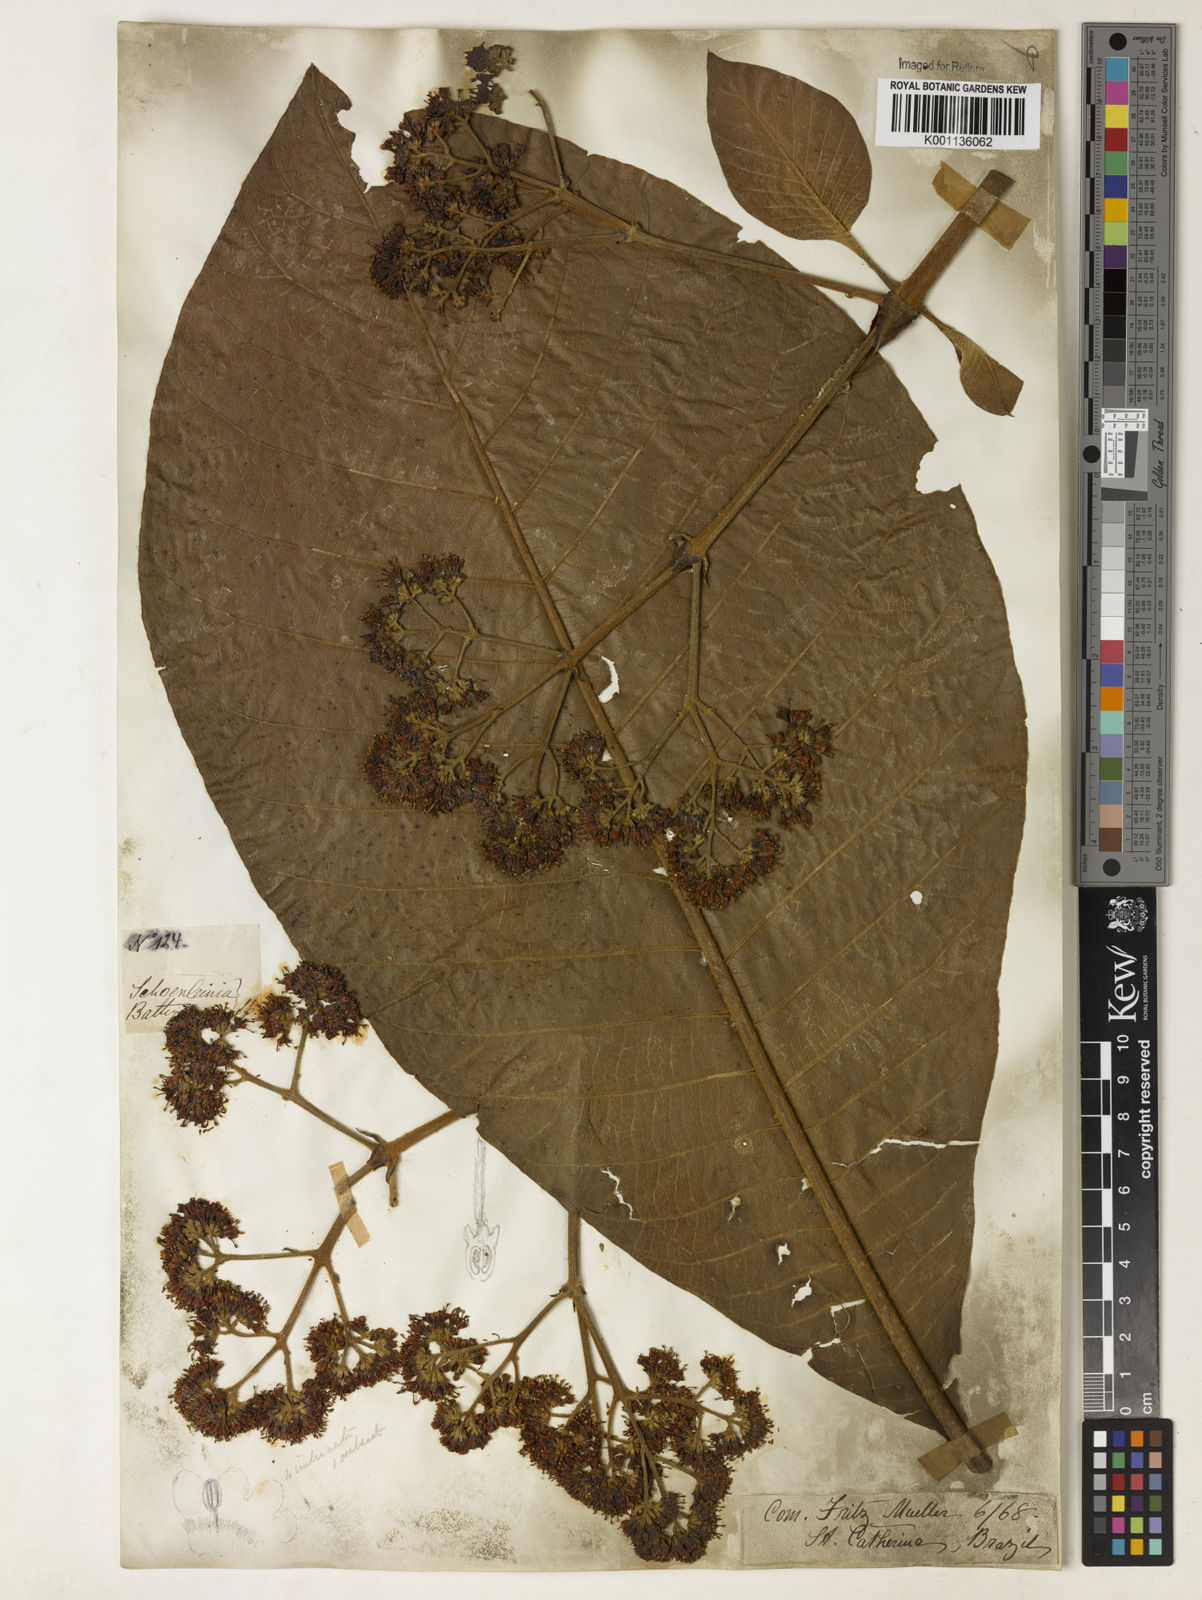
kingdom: Plantae
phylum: Tracheophyta
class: Magnoliopsida
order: Gentianales
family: Rubiaceae
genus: Bathysa
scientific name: Bathysa australis
